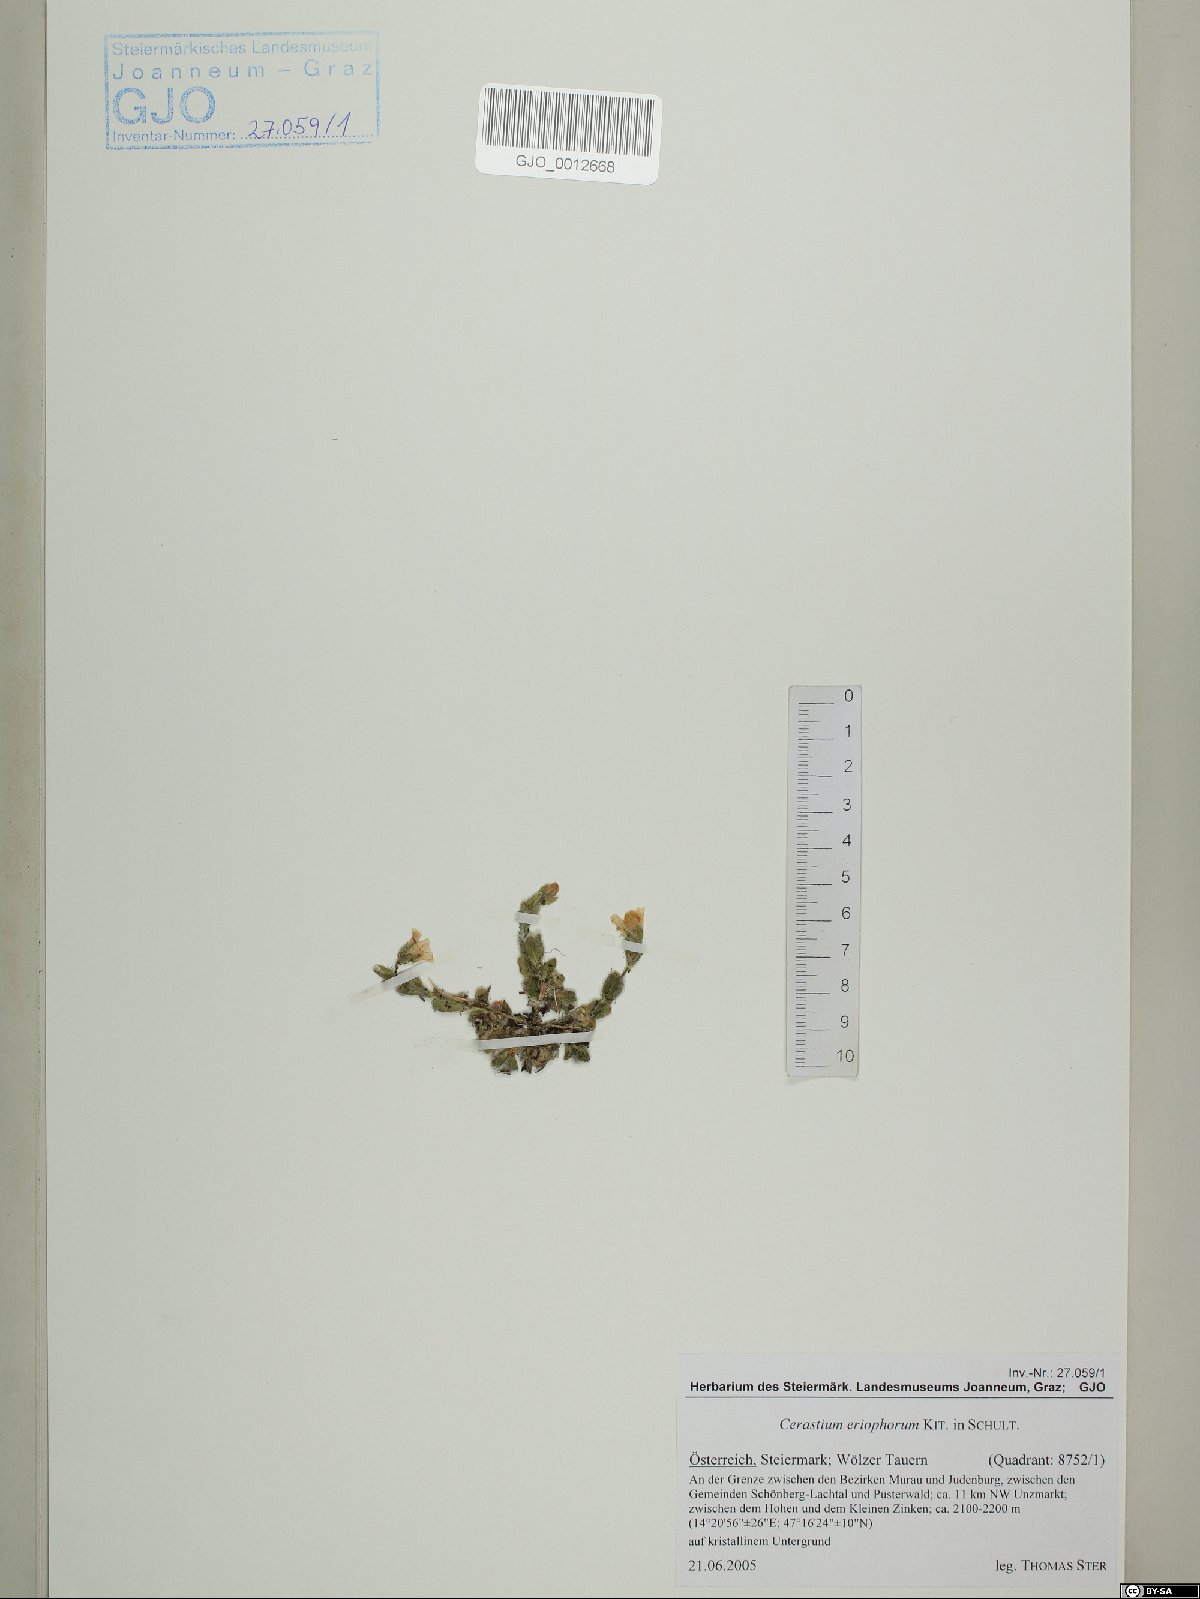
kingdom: Plantae
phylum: Tracheophyta
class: Magnoliopsida
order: Caryophyllales
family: Caryophyllaceae
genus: Cerastium
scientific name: Cerastium eriophorum
